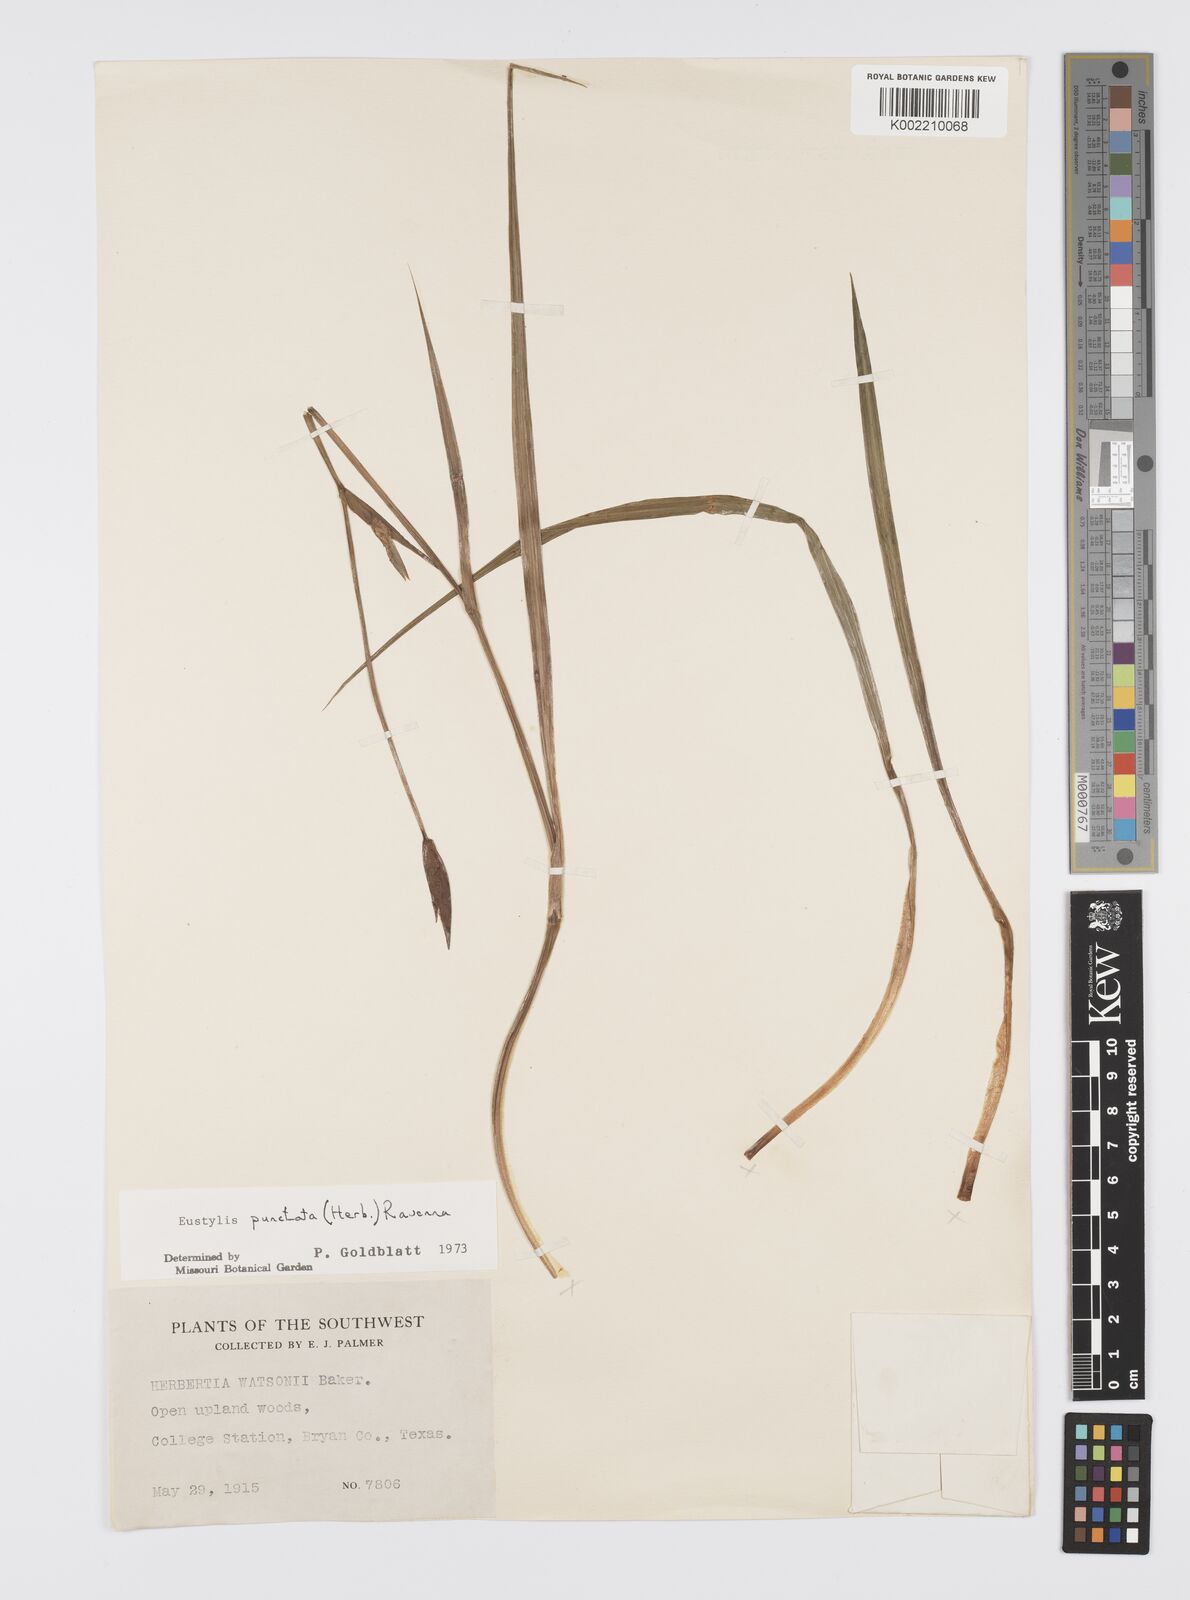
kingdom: Plantae
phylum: Tracheophyta
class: Liliopsida
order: Asparagales
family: Iridaceae
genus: Alophia
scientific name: Alophia drummondii
